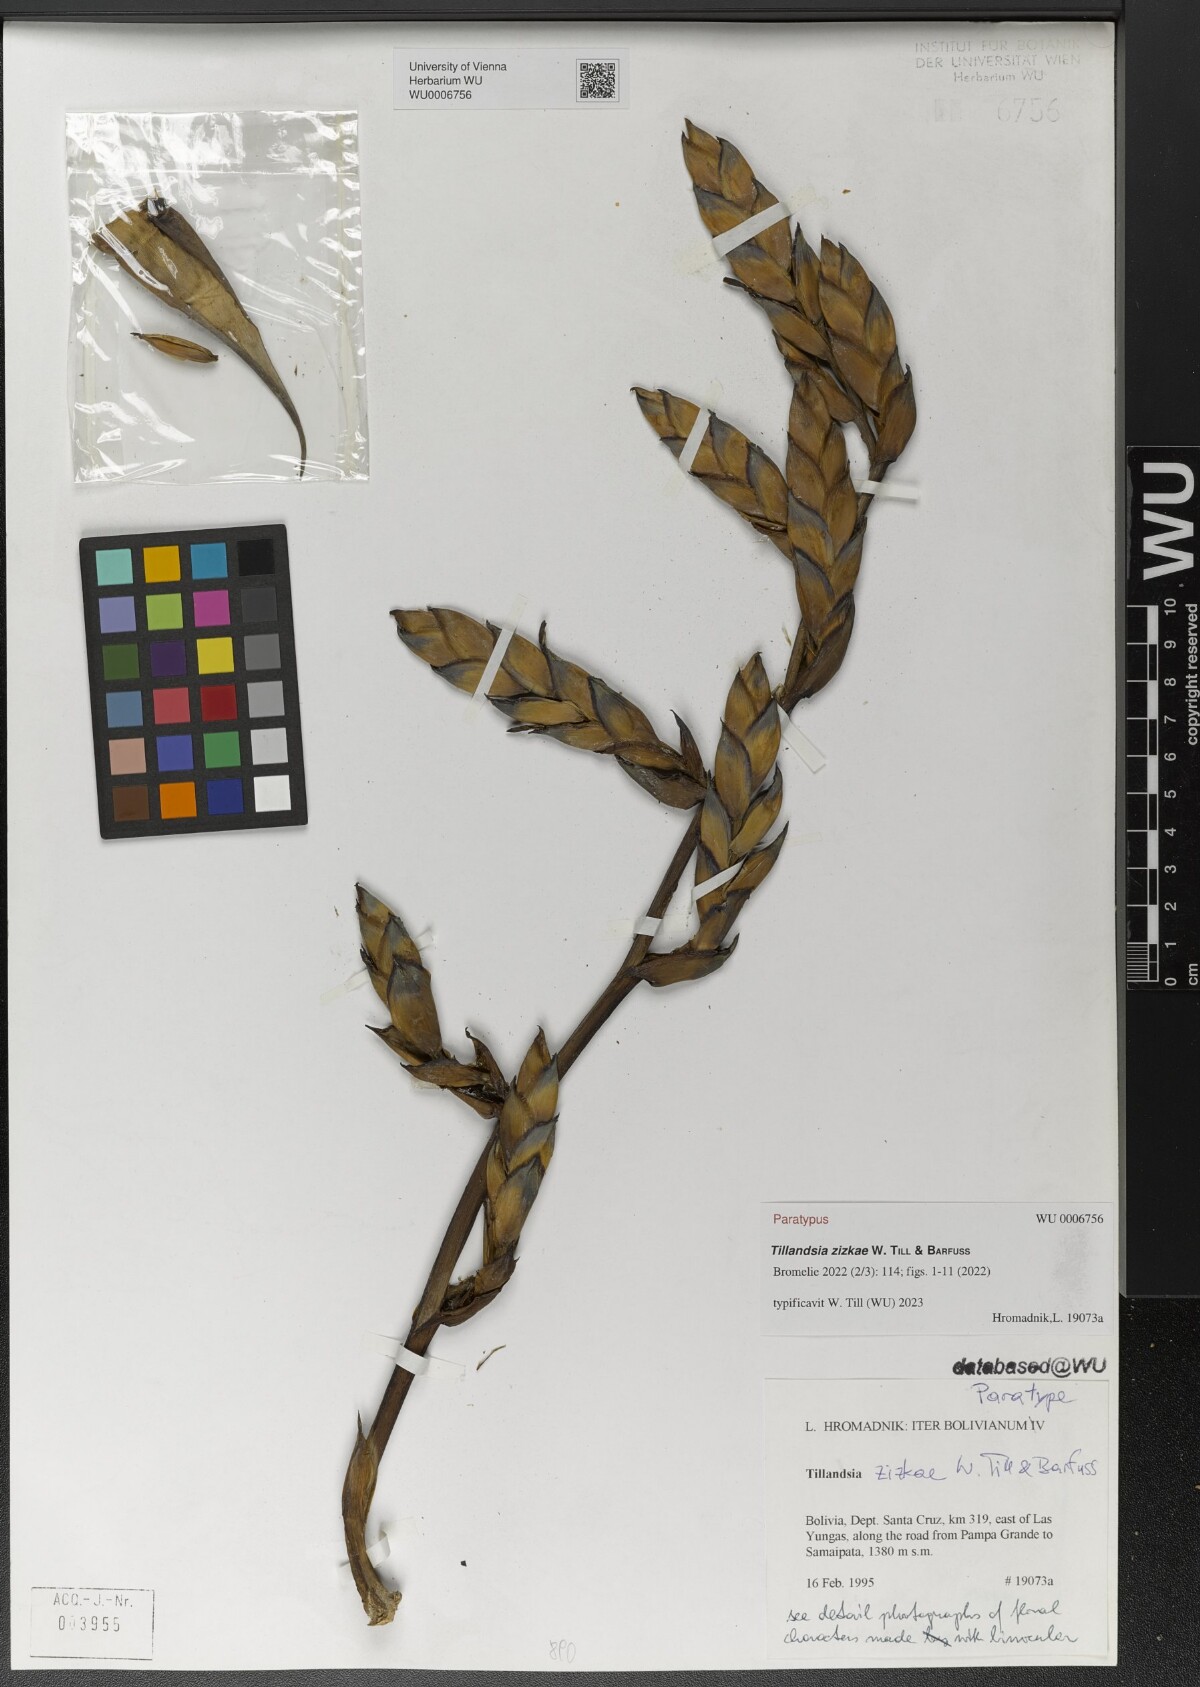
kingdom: Plantae
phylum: Tracheophyta
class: Liliopsida
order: Poales
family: Bromeliaceae
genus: Tillandsia
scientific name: Tillandsia
